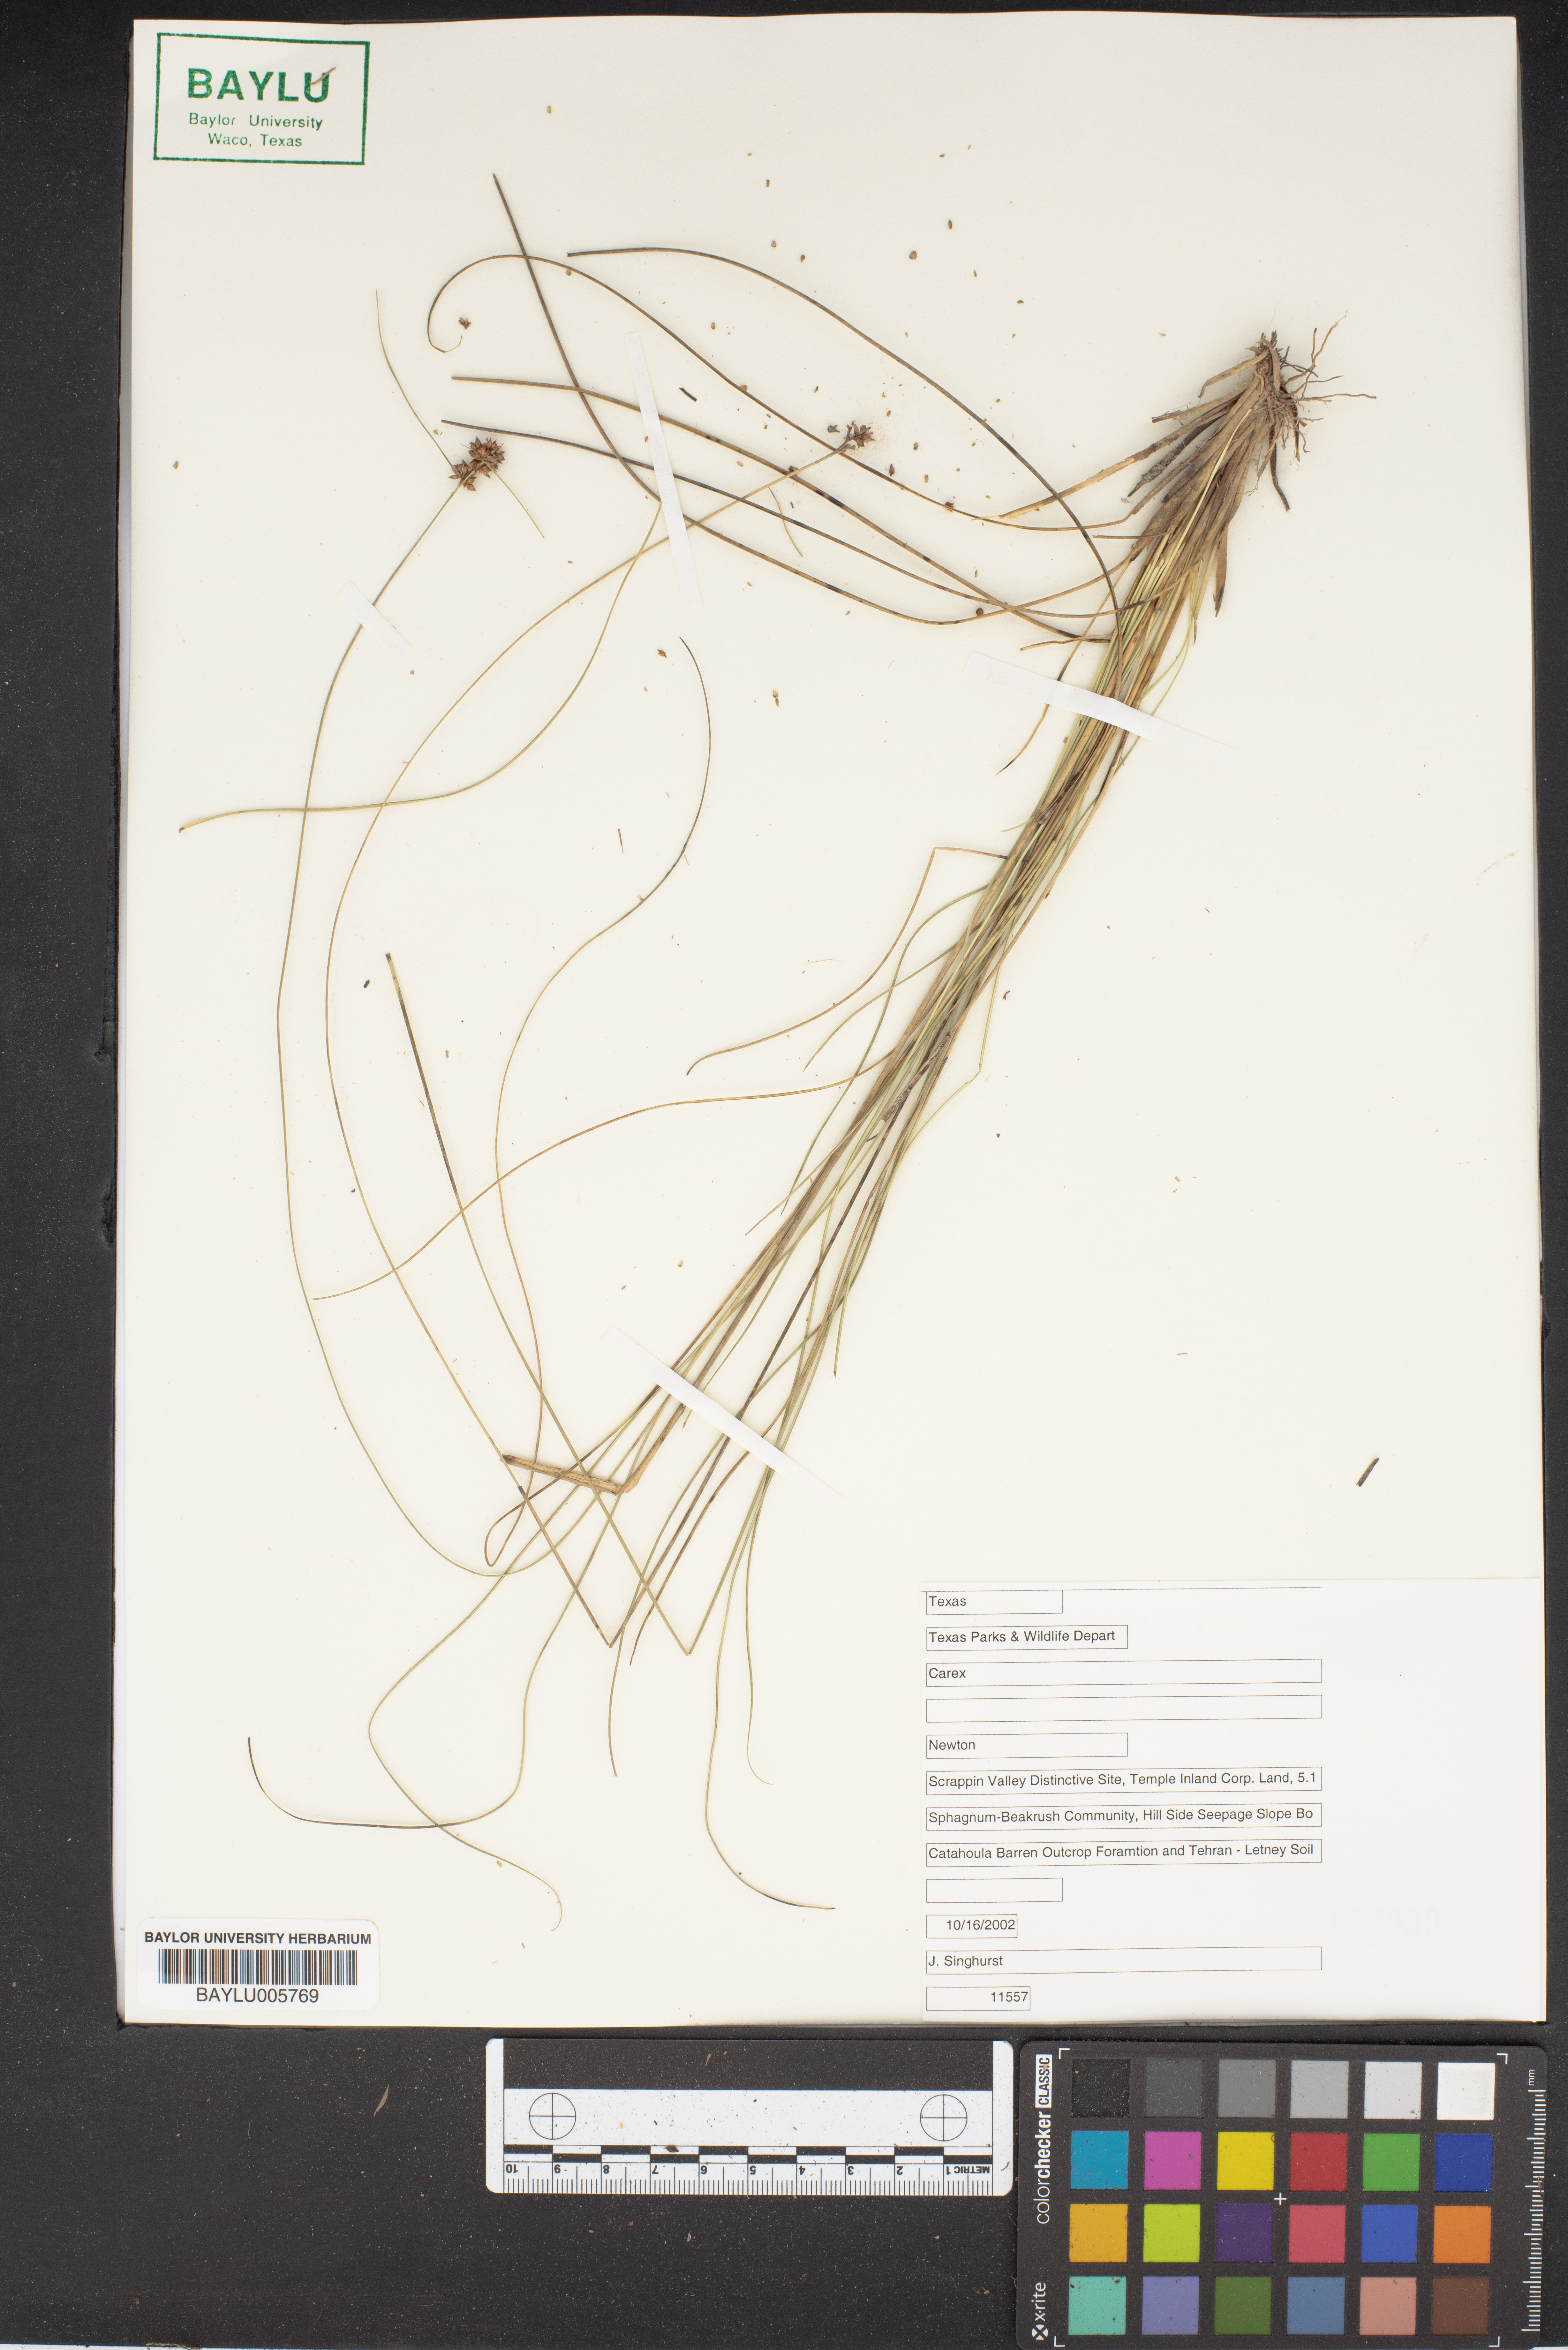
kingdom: Plantae
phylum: Tracheophyta
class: Liliopsida
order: Poales
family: Cyperaceae
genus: Carex
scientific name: Carex
